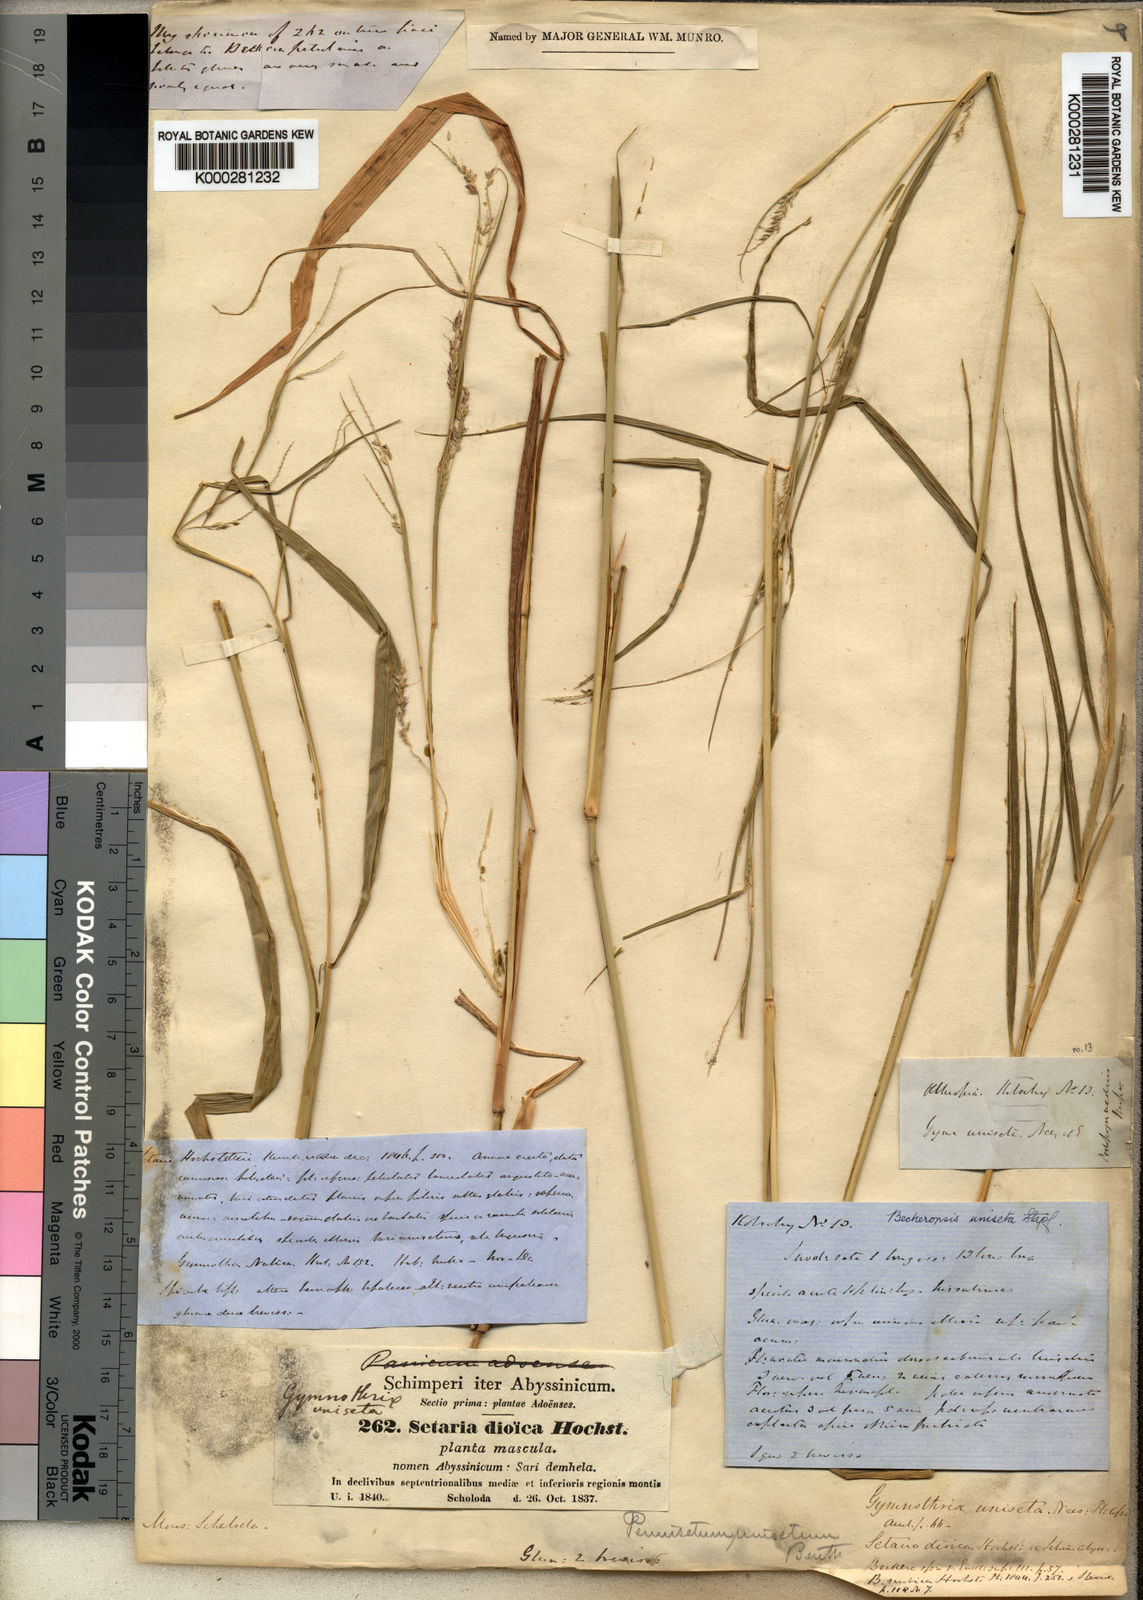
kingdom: Plantae
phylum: Tracheophyta
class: Liliopsida
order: Poales
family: Poaceae
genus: Cenchrus
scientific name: Cenchrus unisetus
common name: Natal grass
